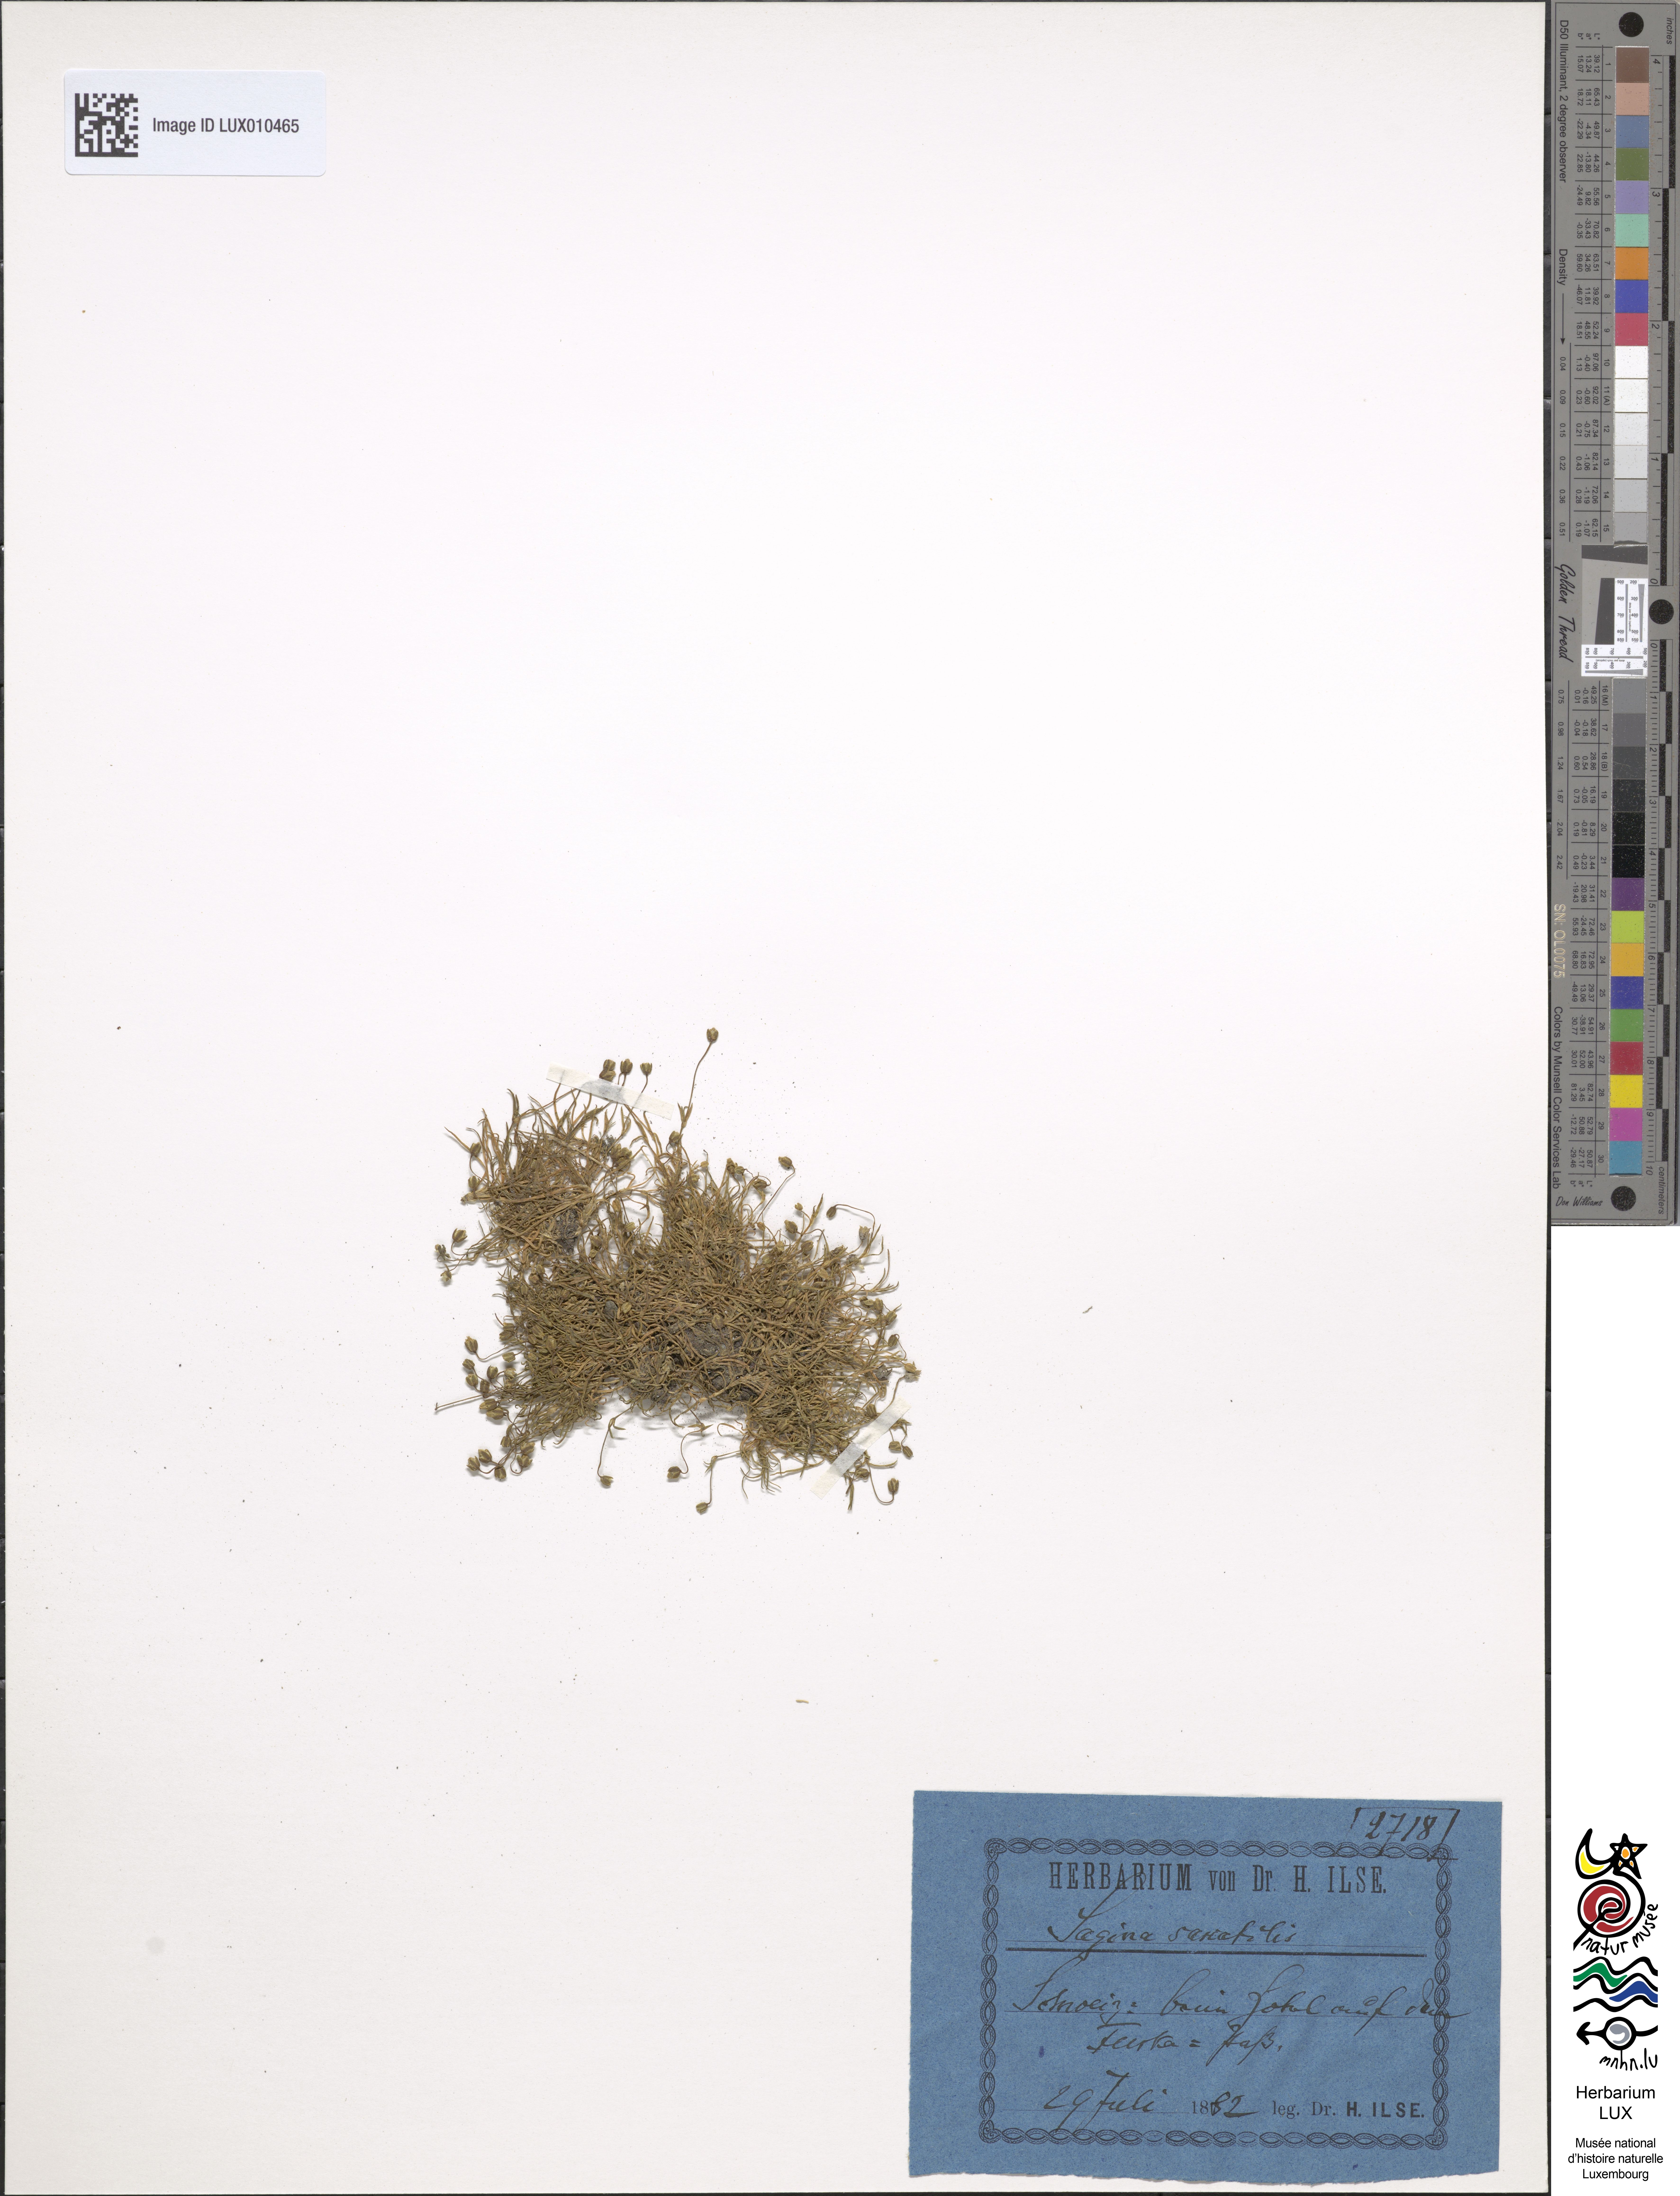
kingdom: Plantae
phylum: Tracheophyta
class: Magnoliopsida
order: Caryophyllales
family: Caryophyllaceae
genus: Sagina
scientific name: Sagina saginoides
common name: Alpine pearlwort
